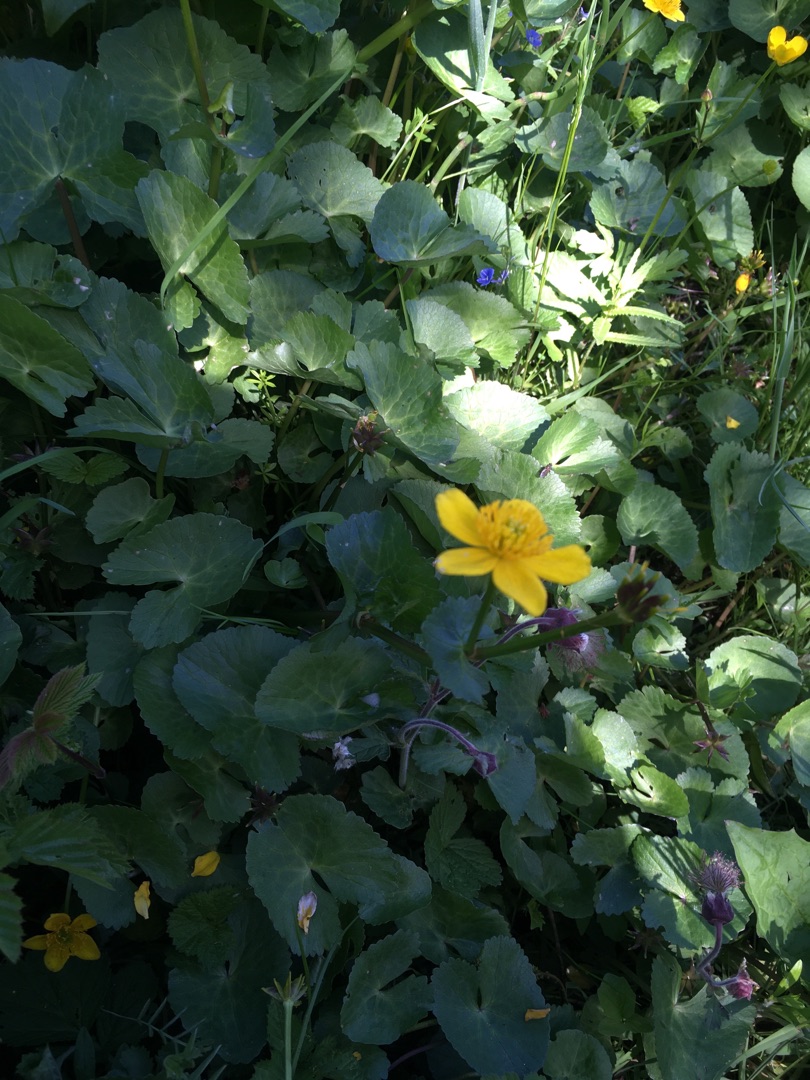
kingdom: Plantae
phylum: Tracheophyta
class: Magnoliopsida
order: Ranunculales
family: Ranunculaceae
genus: Caltha
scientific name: Caltha palustris
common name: Eng-kabbeleje
